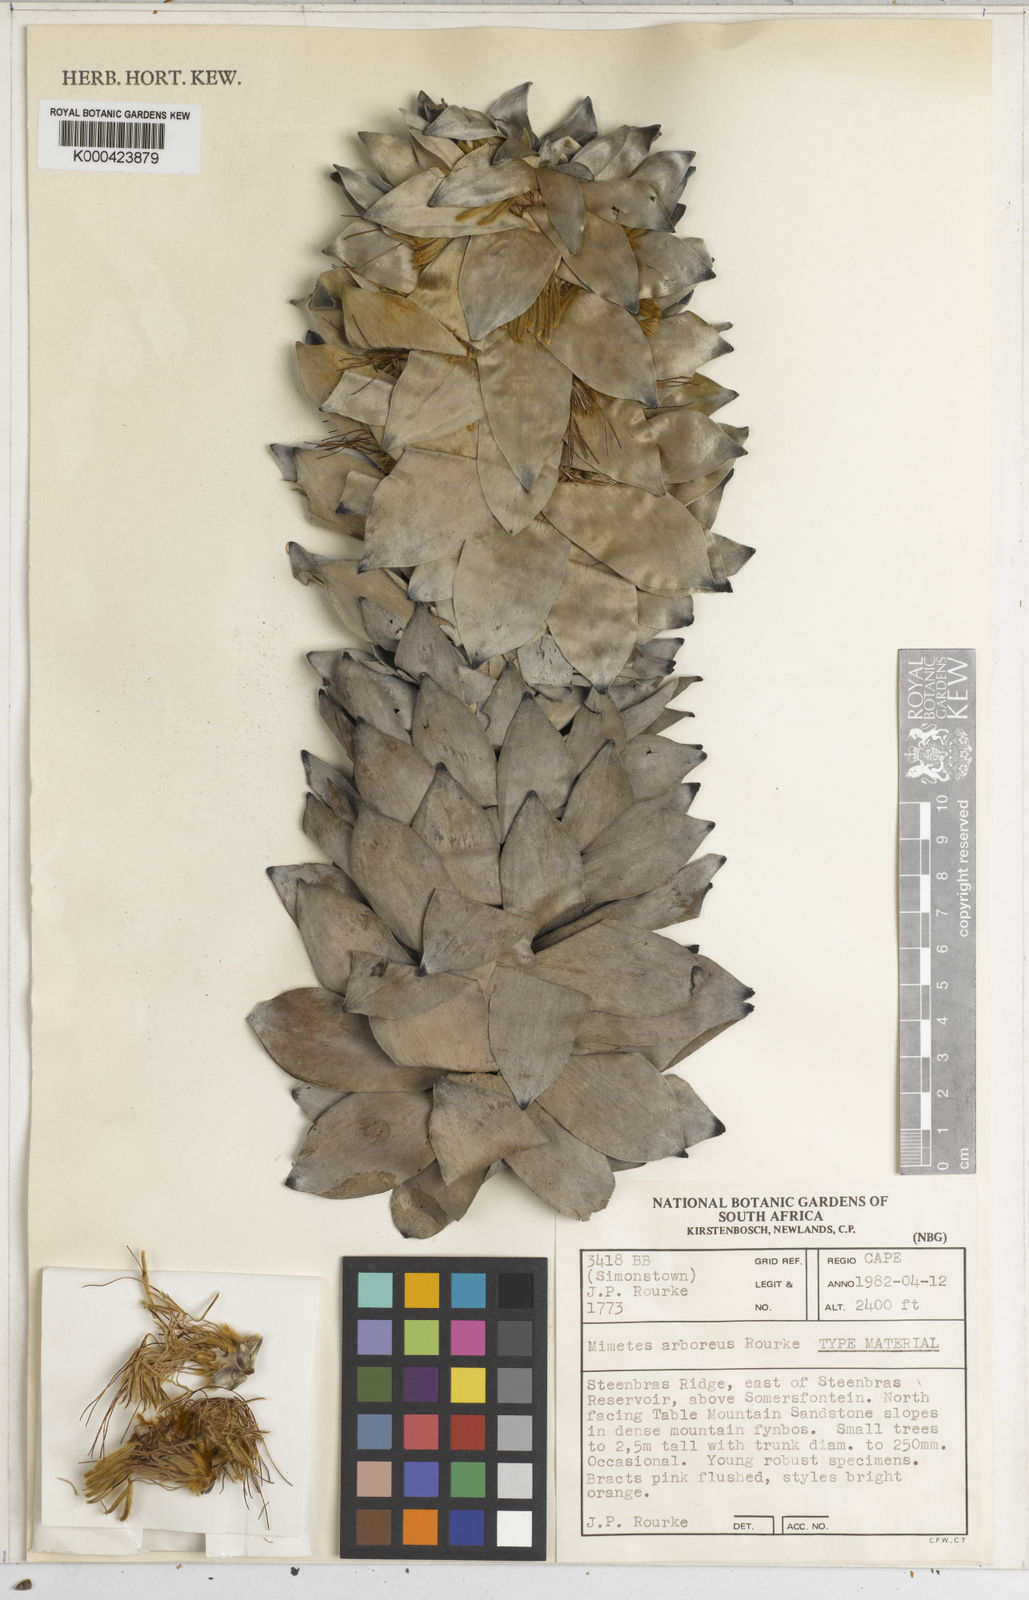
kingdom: Plantae
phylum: Tracheophyta
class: Magnoliopsida
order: Proteales
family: Proteaceae
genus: Mimetes
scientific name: Mimetes
